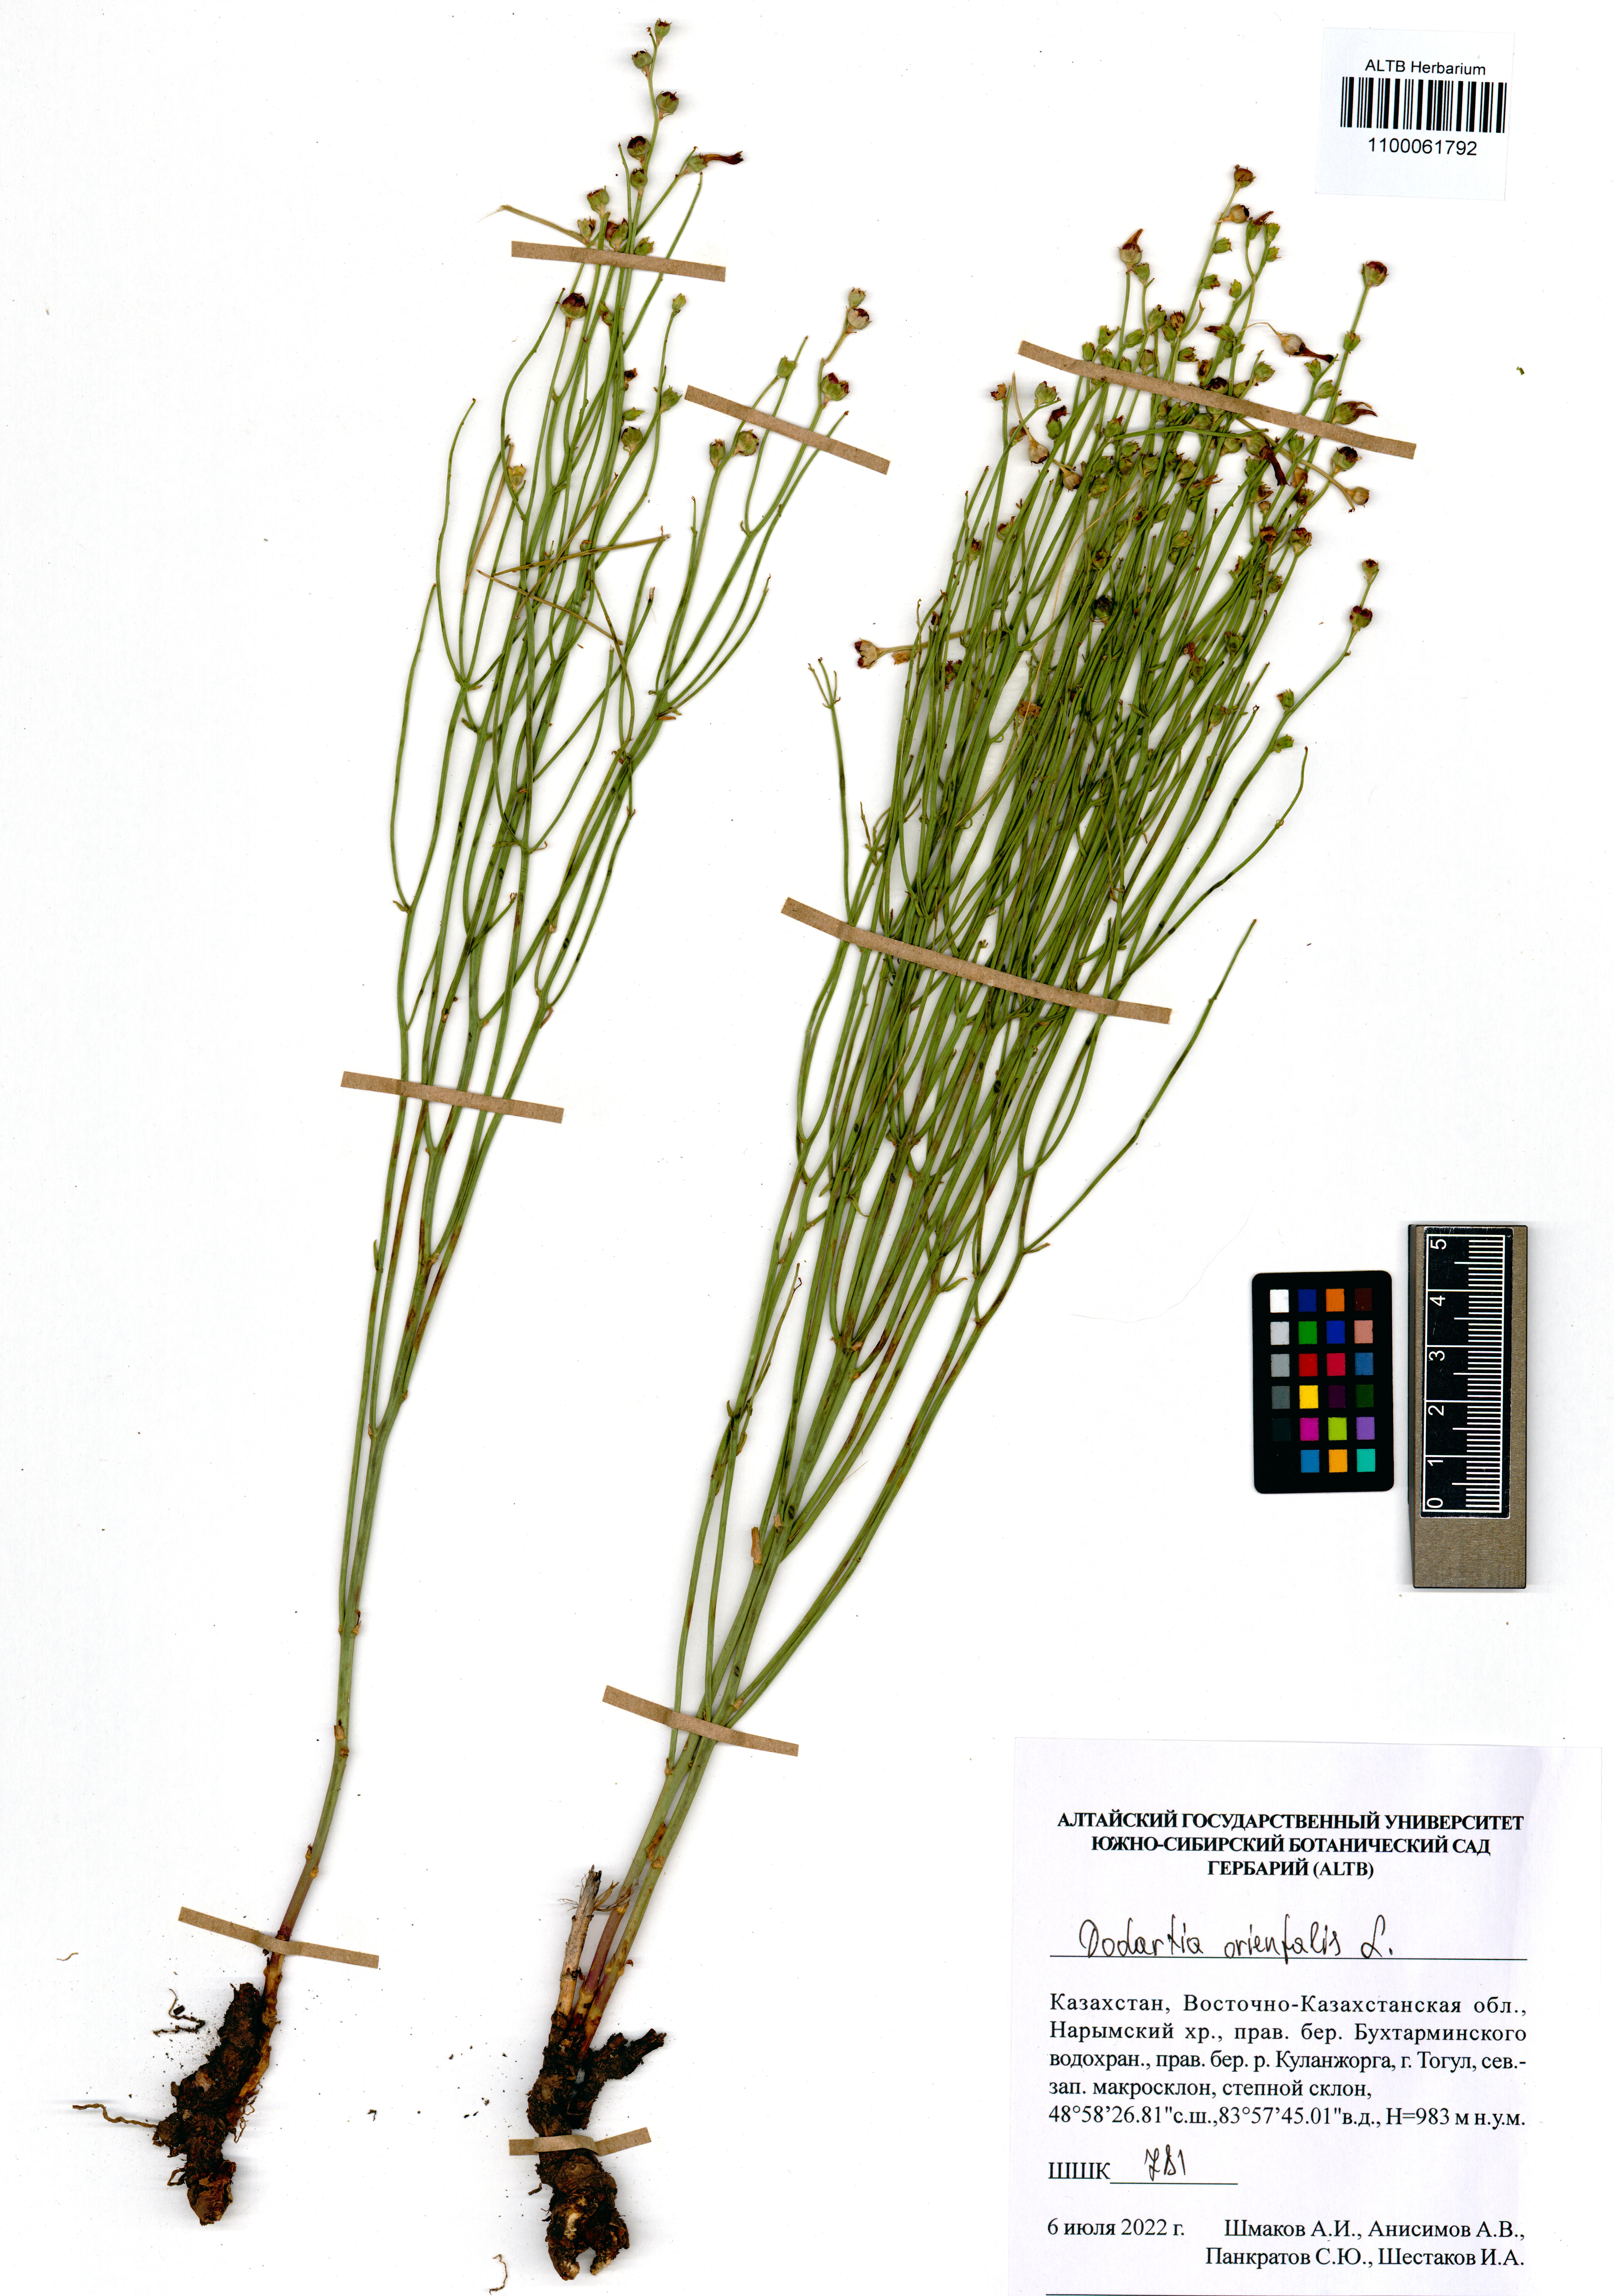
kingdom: Plantae
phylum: Tracheophyta
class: Magnoliopsida
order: Lamiales
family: Mazaceae
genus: Dodartia
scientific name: Dodartia orientalis
